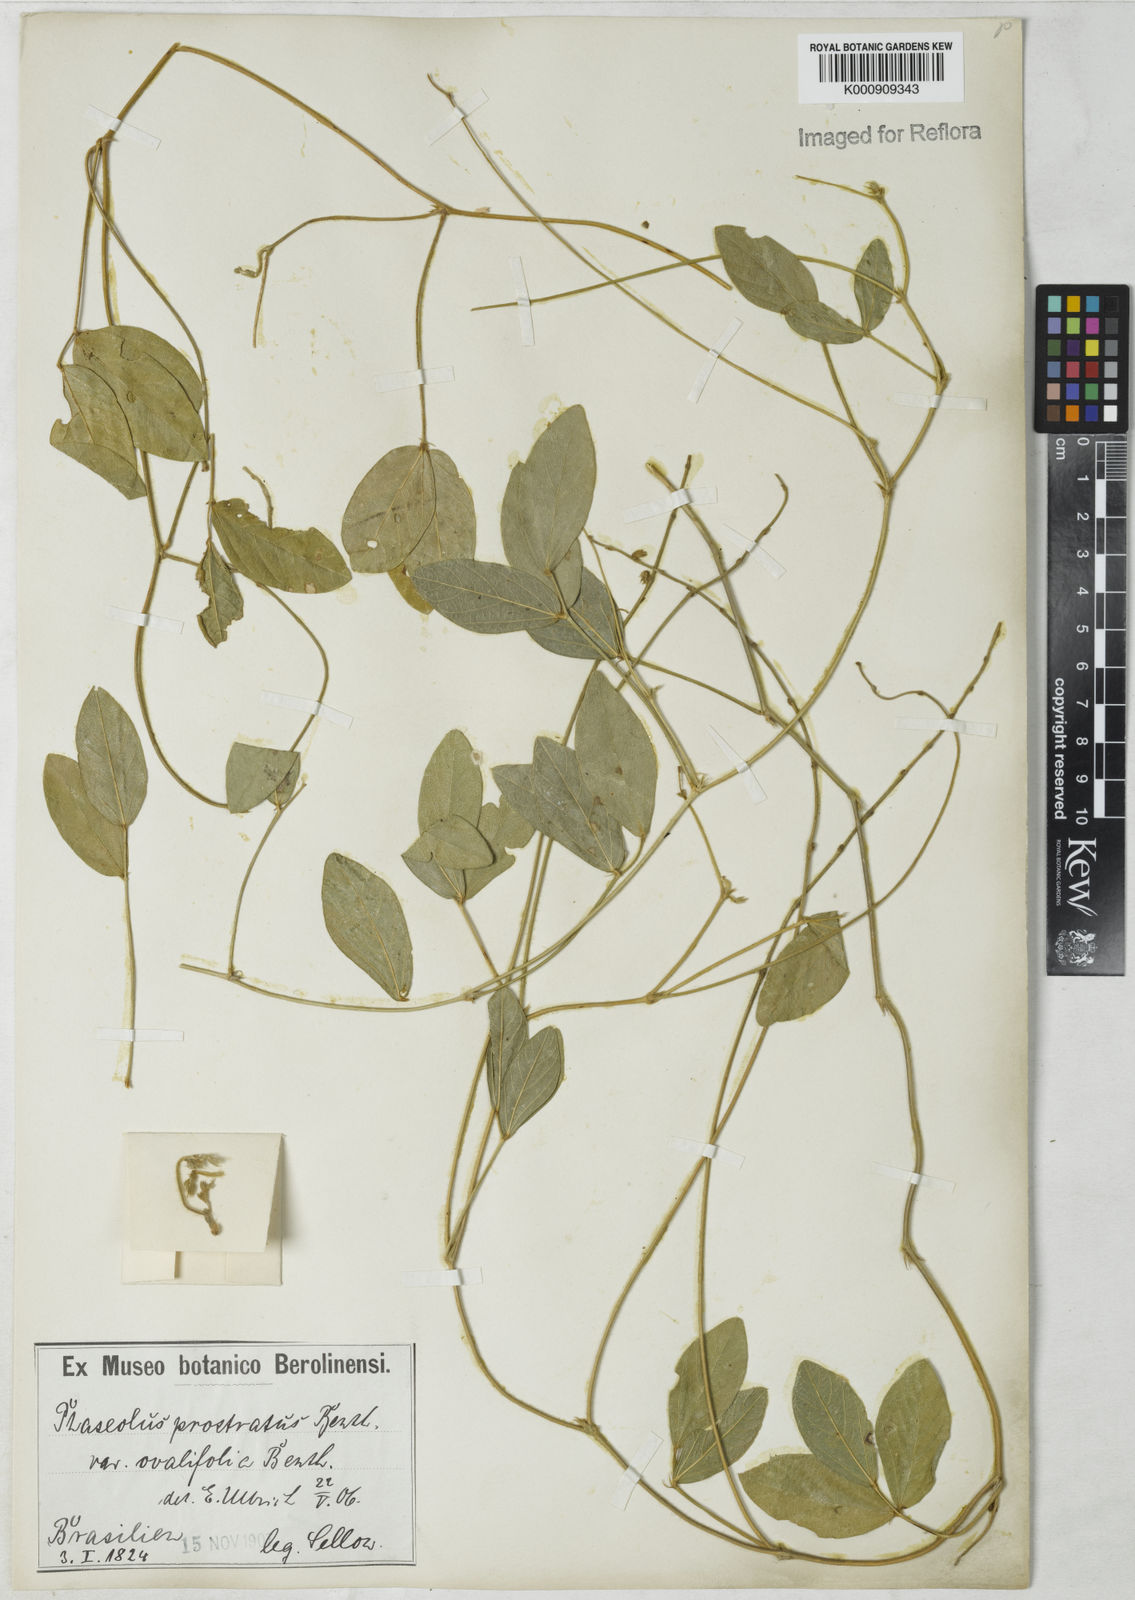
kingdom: Plantae
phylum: Tracheophyta
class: Magnoliopsida
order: Fabales
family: Fabaceae
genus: Macroptilium
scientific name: Macroptilium prostratum
